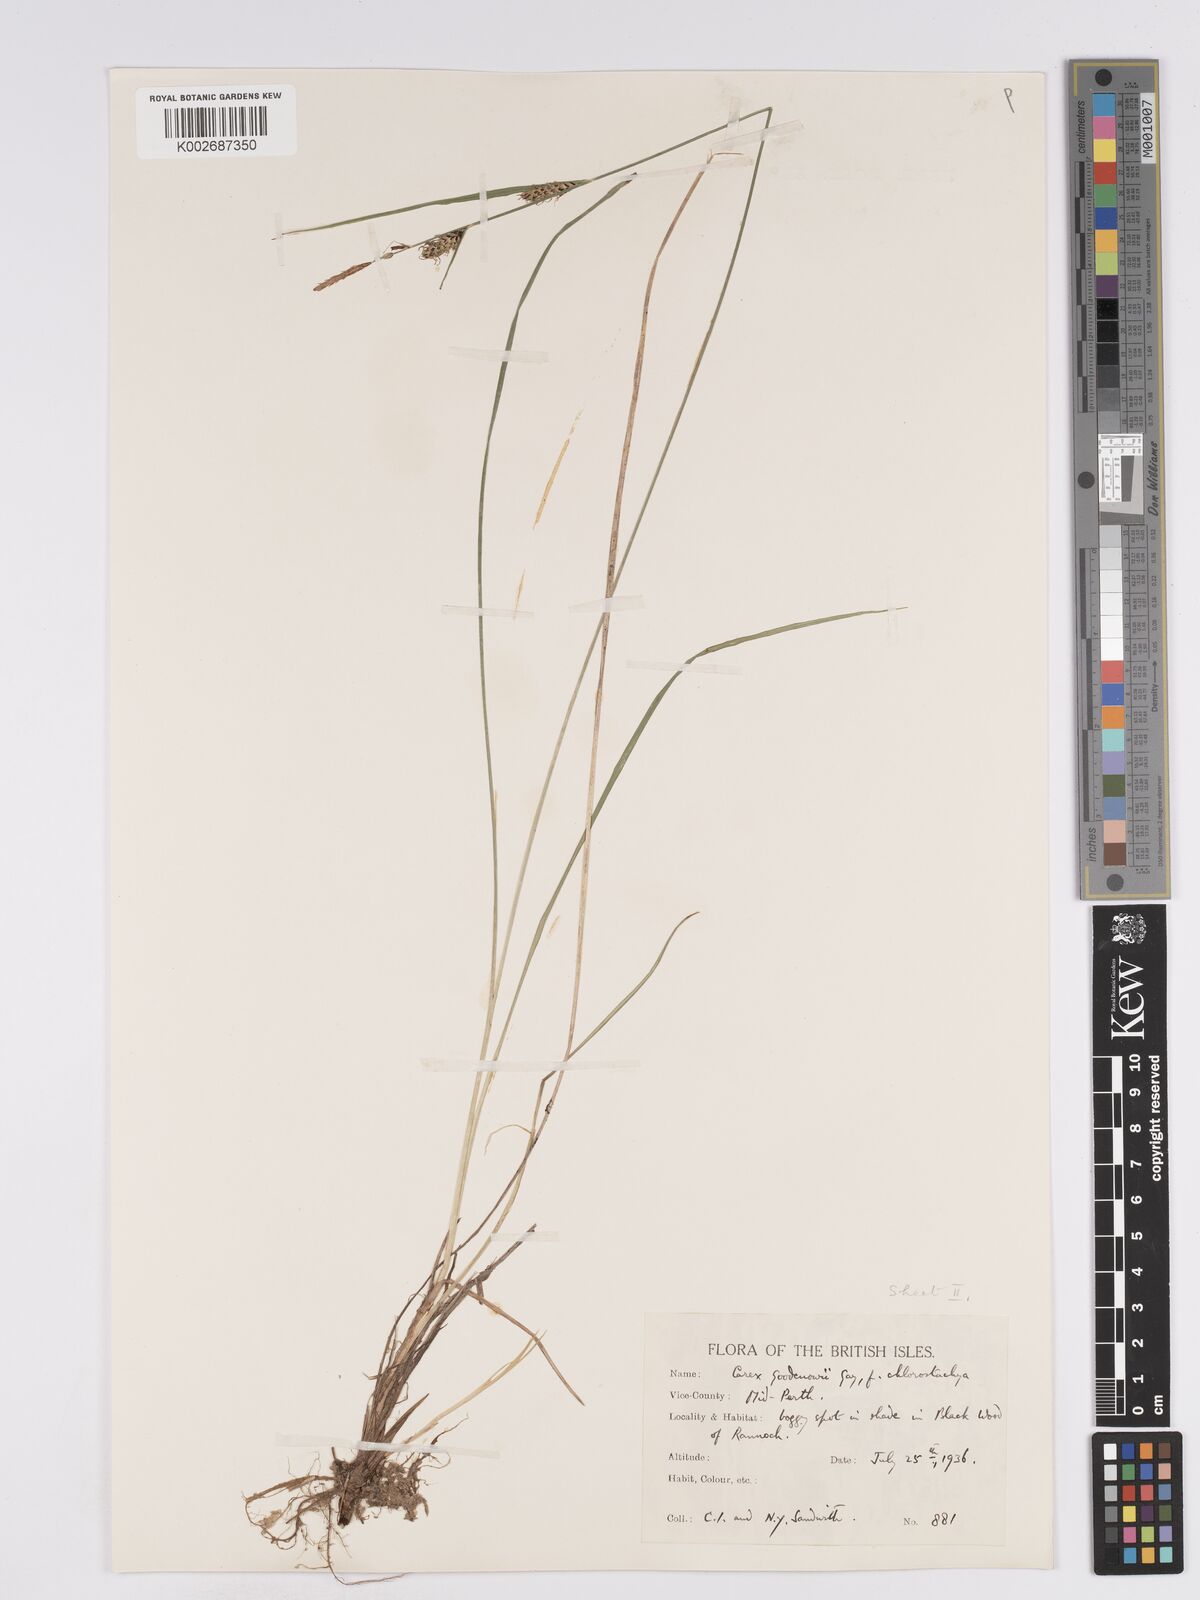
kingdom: Plantae
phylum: Tracheophyta
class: Liliopsida
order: Poales
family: Cyperaceae
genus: Carex
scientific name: Carex nigra
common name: Common sedge
